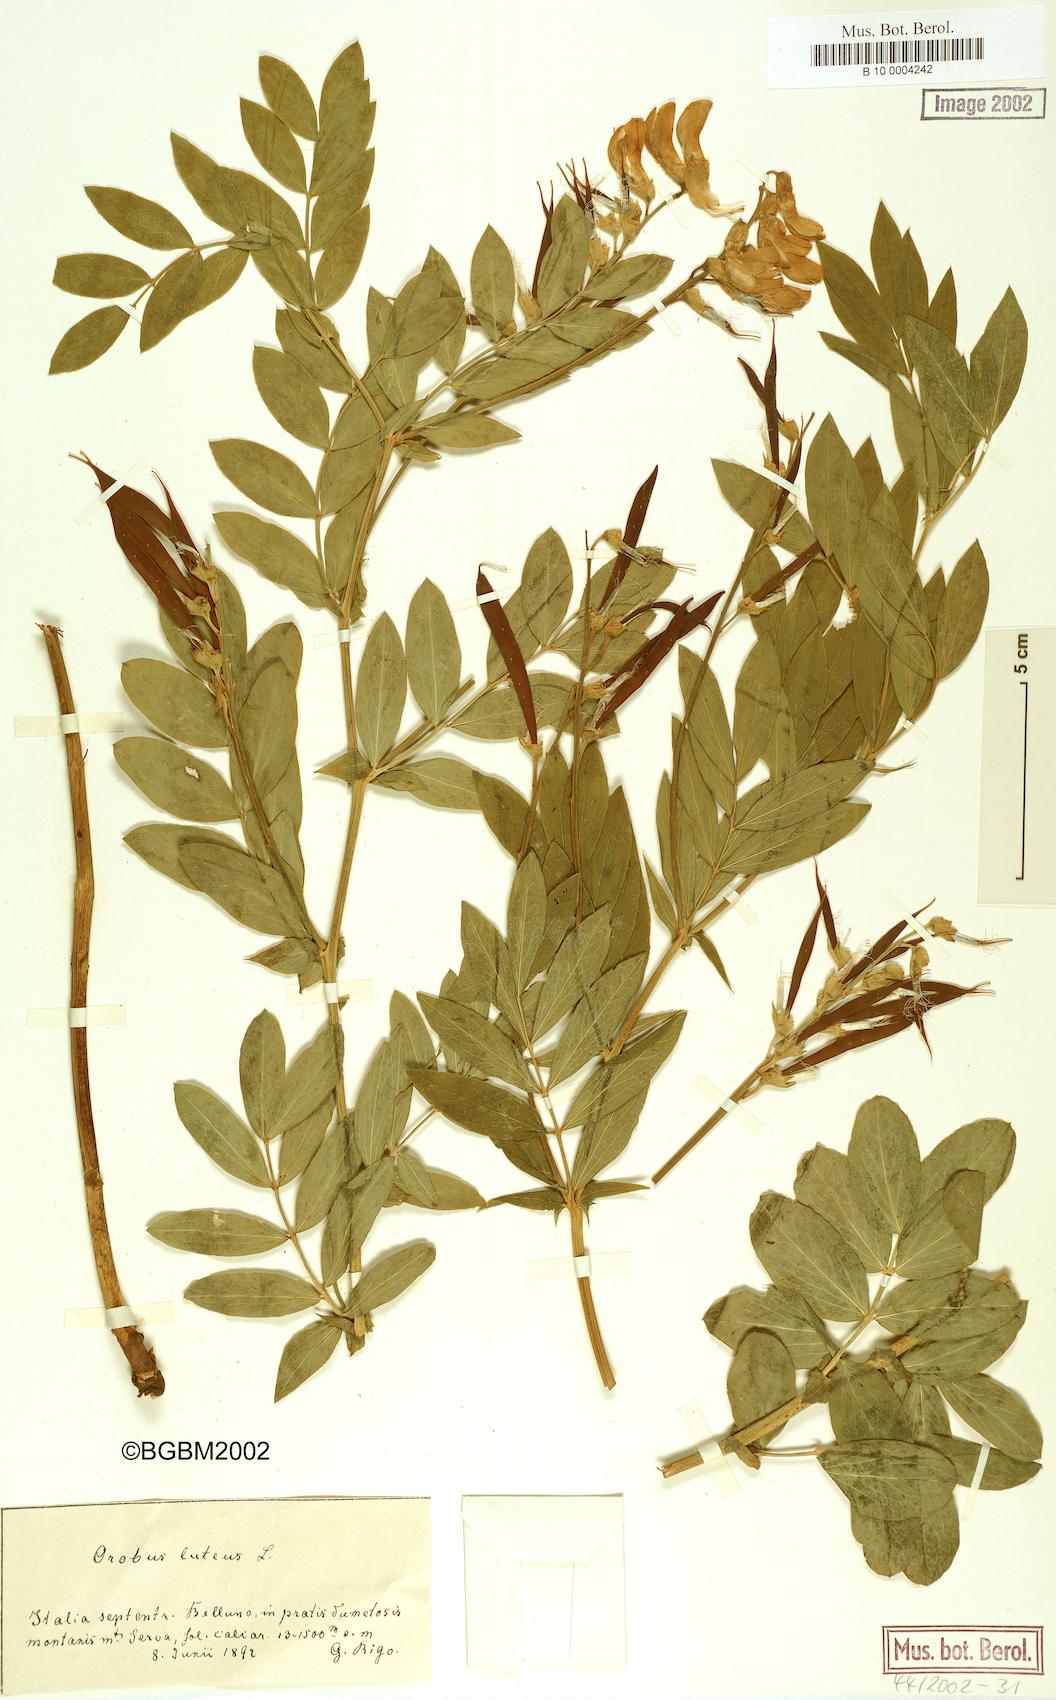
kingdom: Plantae
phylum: Tracheophyta
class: Magnoliopsida
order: Fabales
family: Fabaceae
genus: Lathyrus
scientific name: Lathyrus gmelinii
